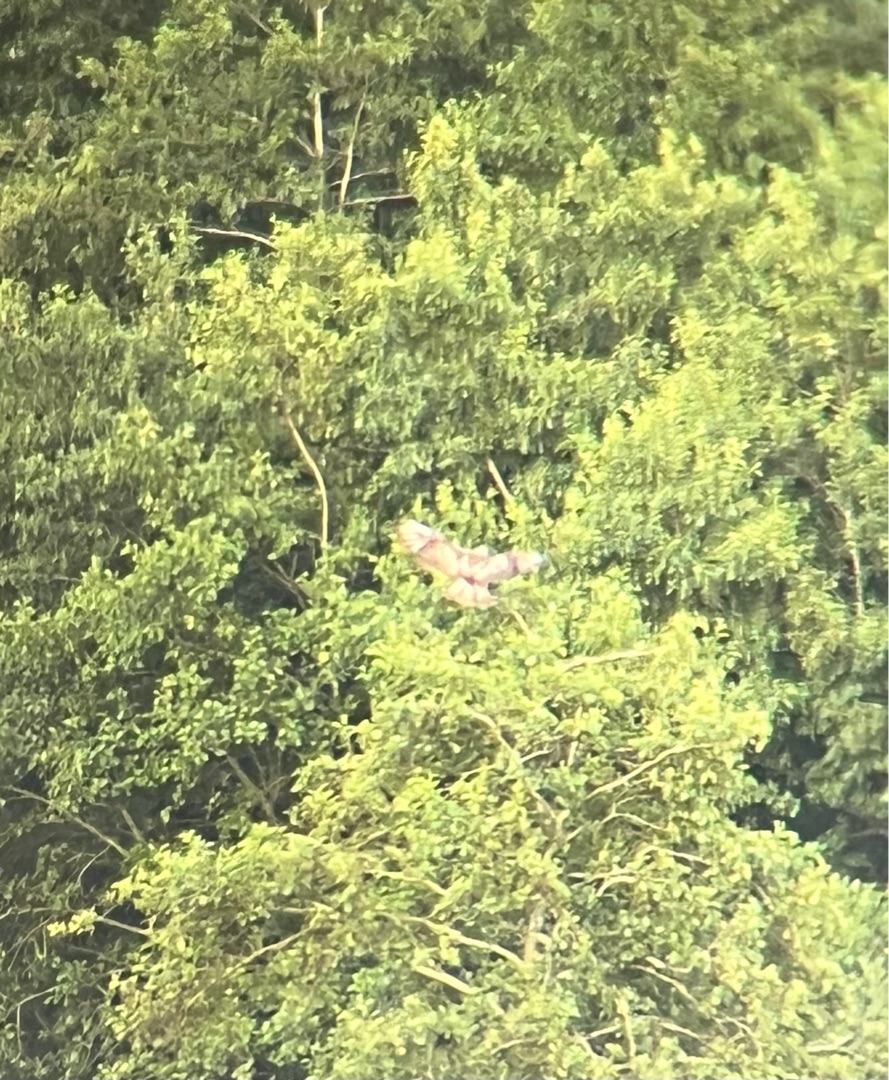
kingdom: Animalia
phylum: Chordata
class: Aves
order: Accipitriformes
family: Accipitridae
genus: Haliaeetus
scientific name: Haliaeetus albicilla
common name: Havørn
